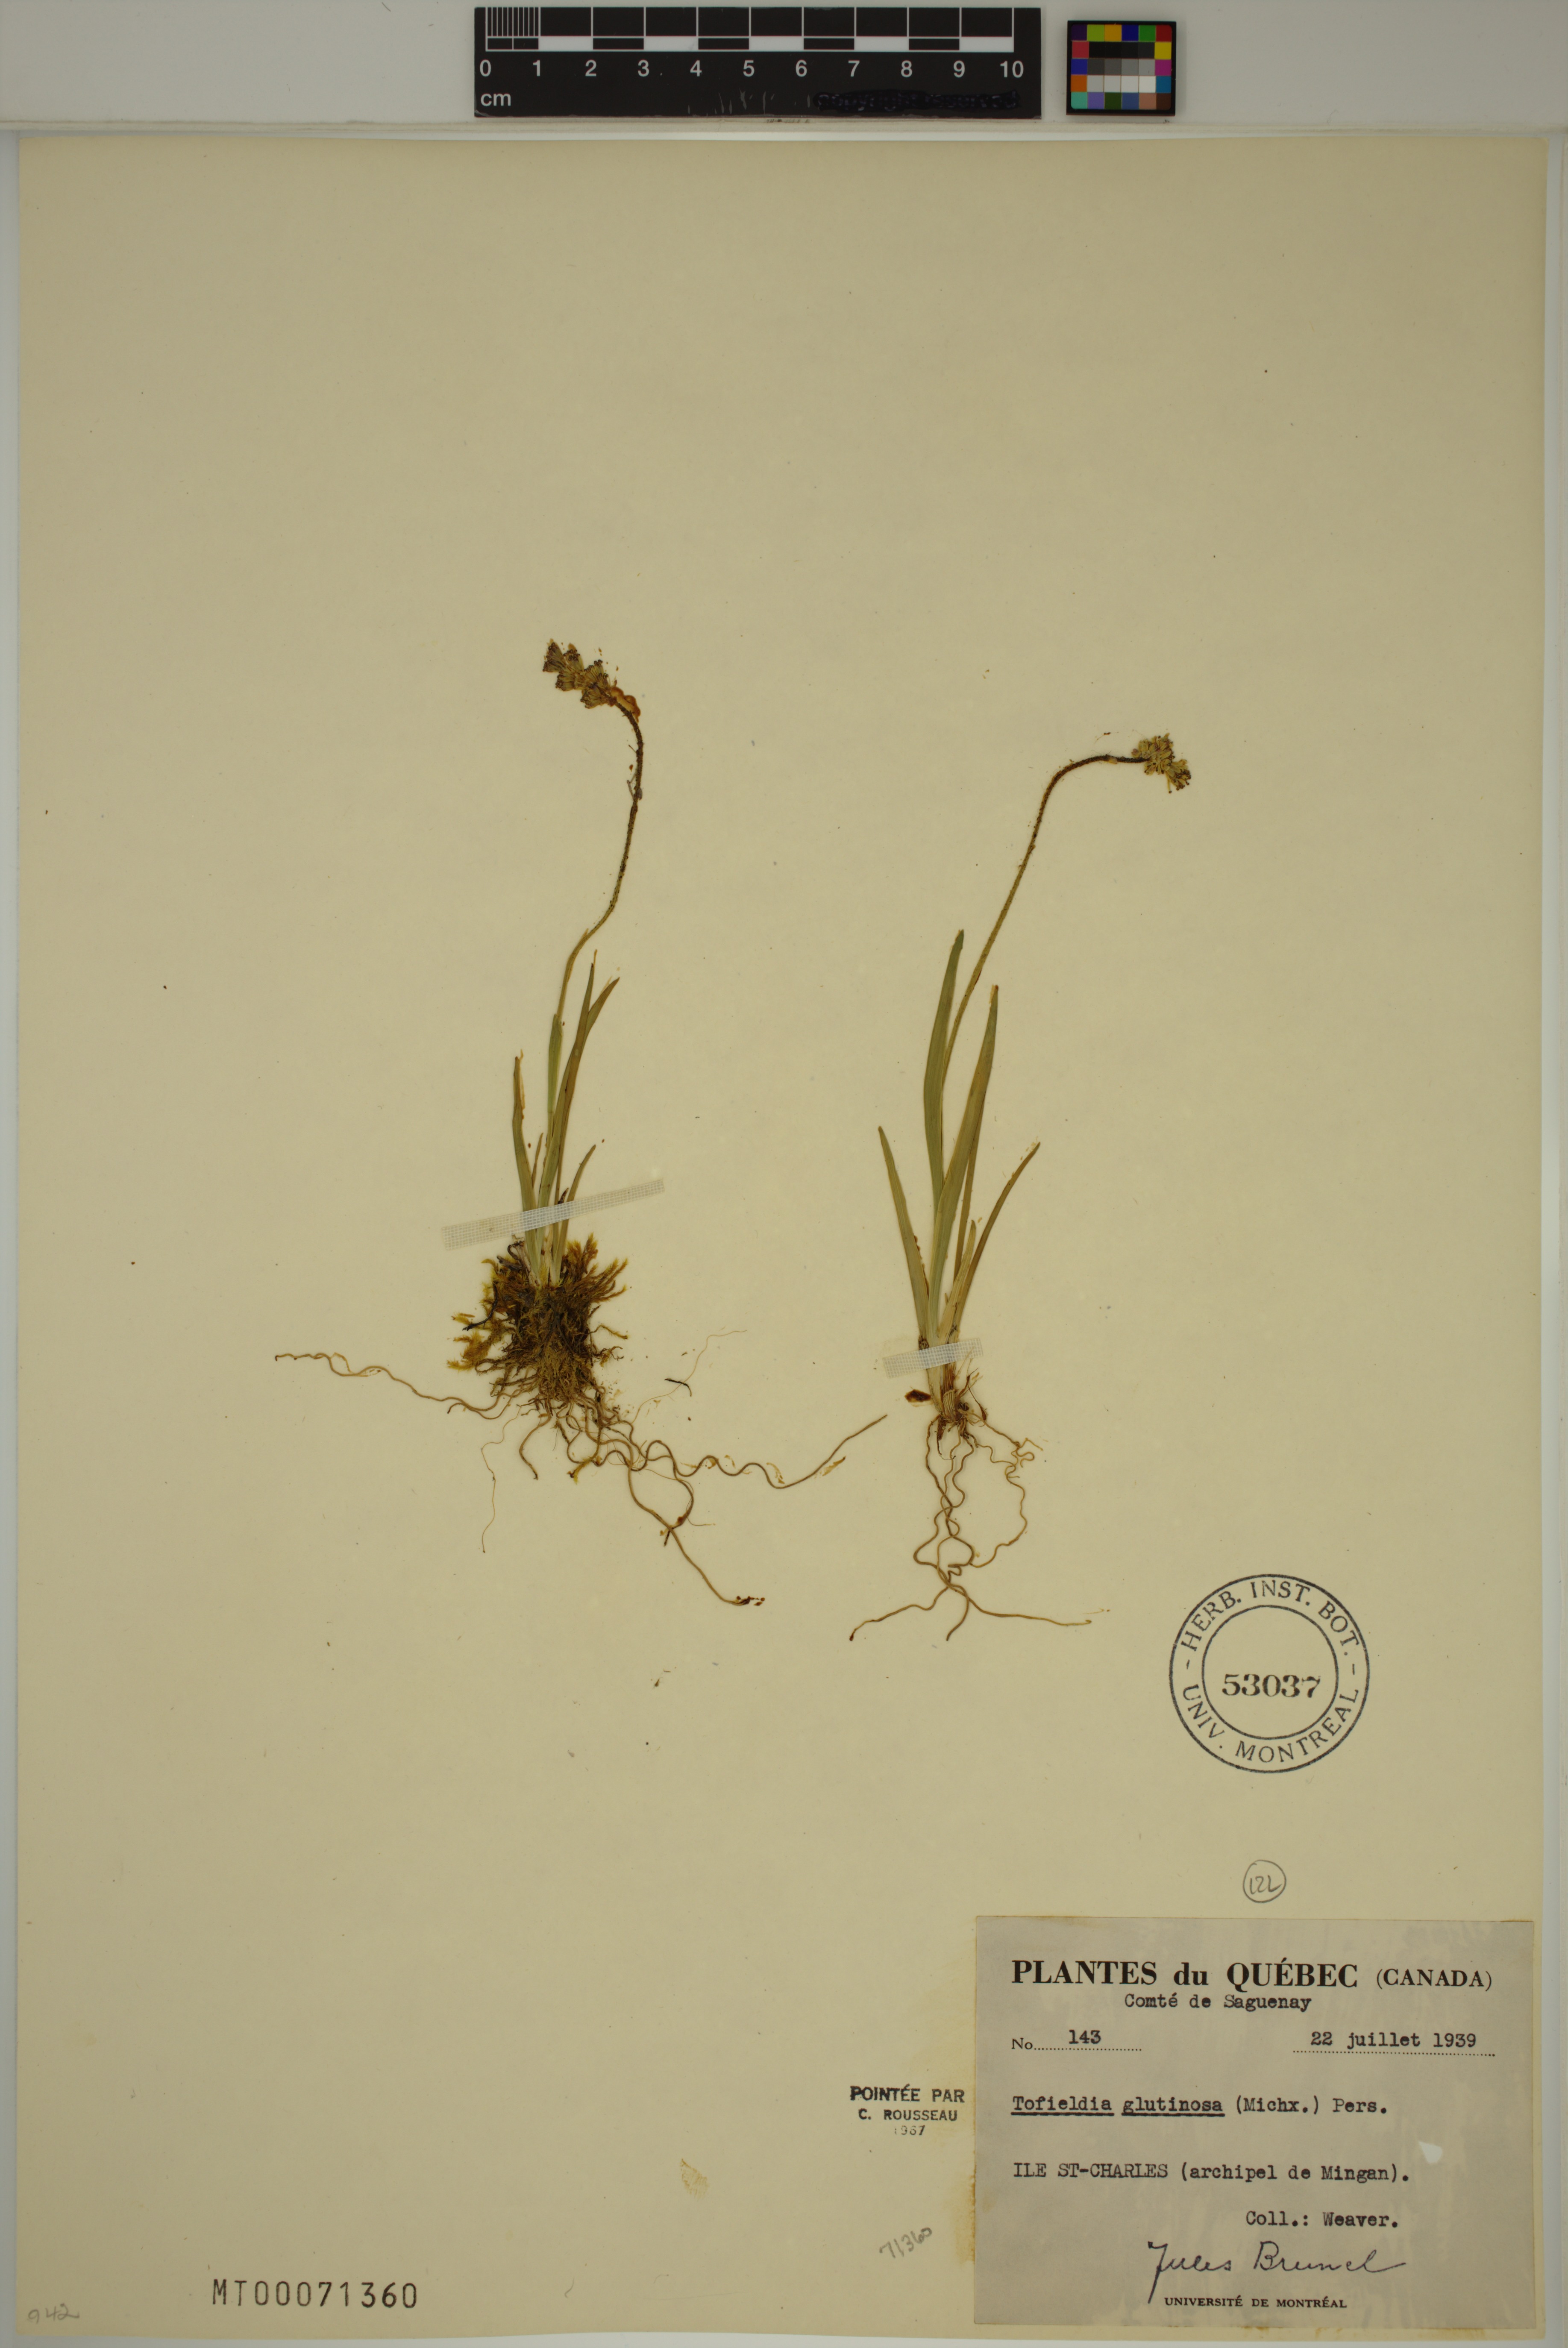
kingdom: Plantae
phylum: Tracheophyta
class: Liliopsida
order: Alismatales
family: Tofieldiaceae
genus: Triantha
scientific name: Triantha glutinosa
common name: Glutinous tofieldia
